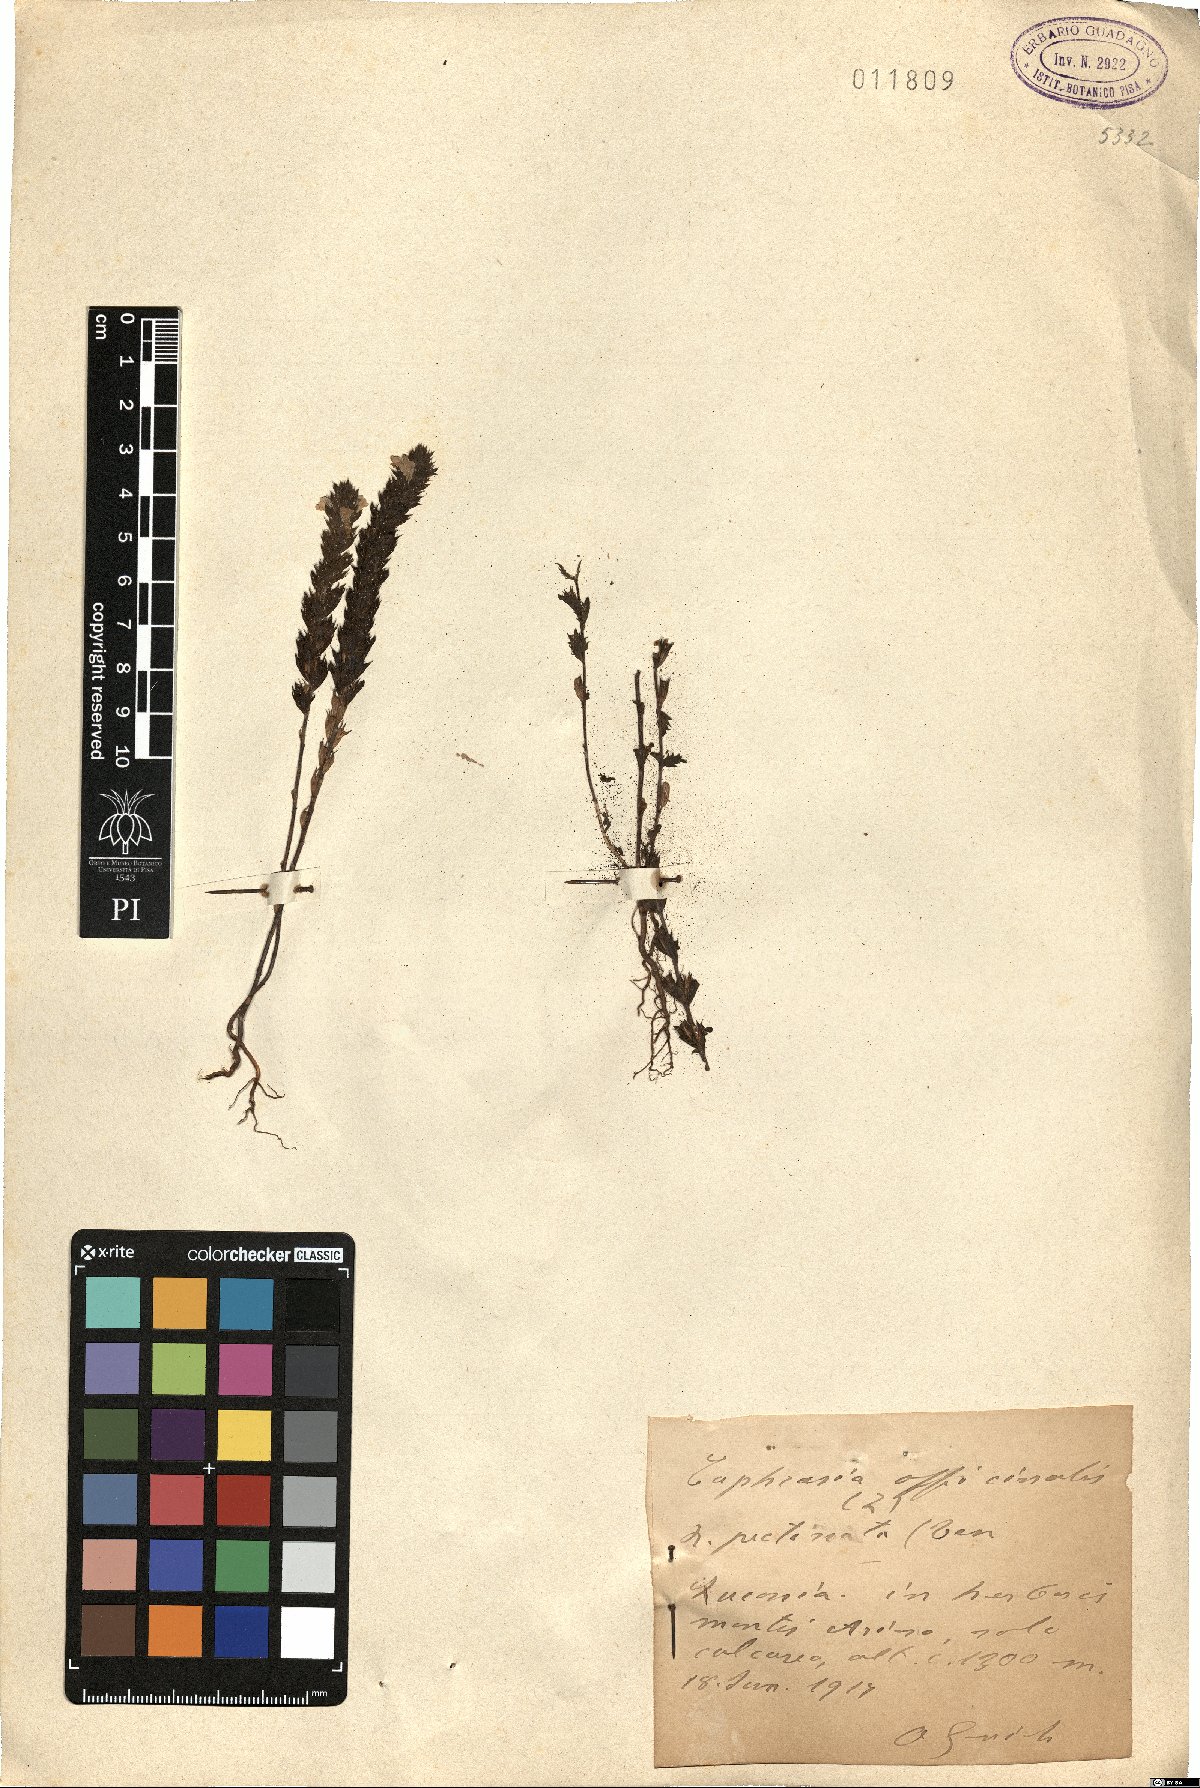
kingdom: Plantae
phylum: Tracheophyta
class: Magnoliopsida
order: Lamiales
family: Orobanchaceae
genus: Euphrasia
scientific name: Euphrasia pectinata
